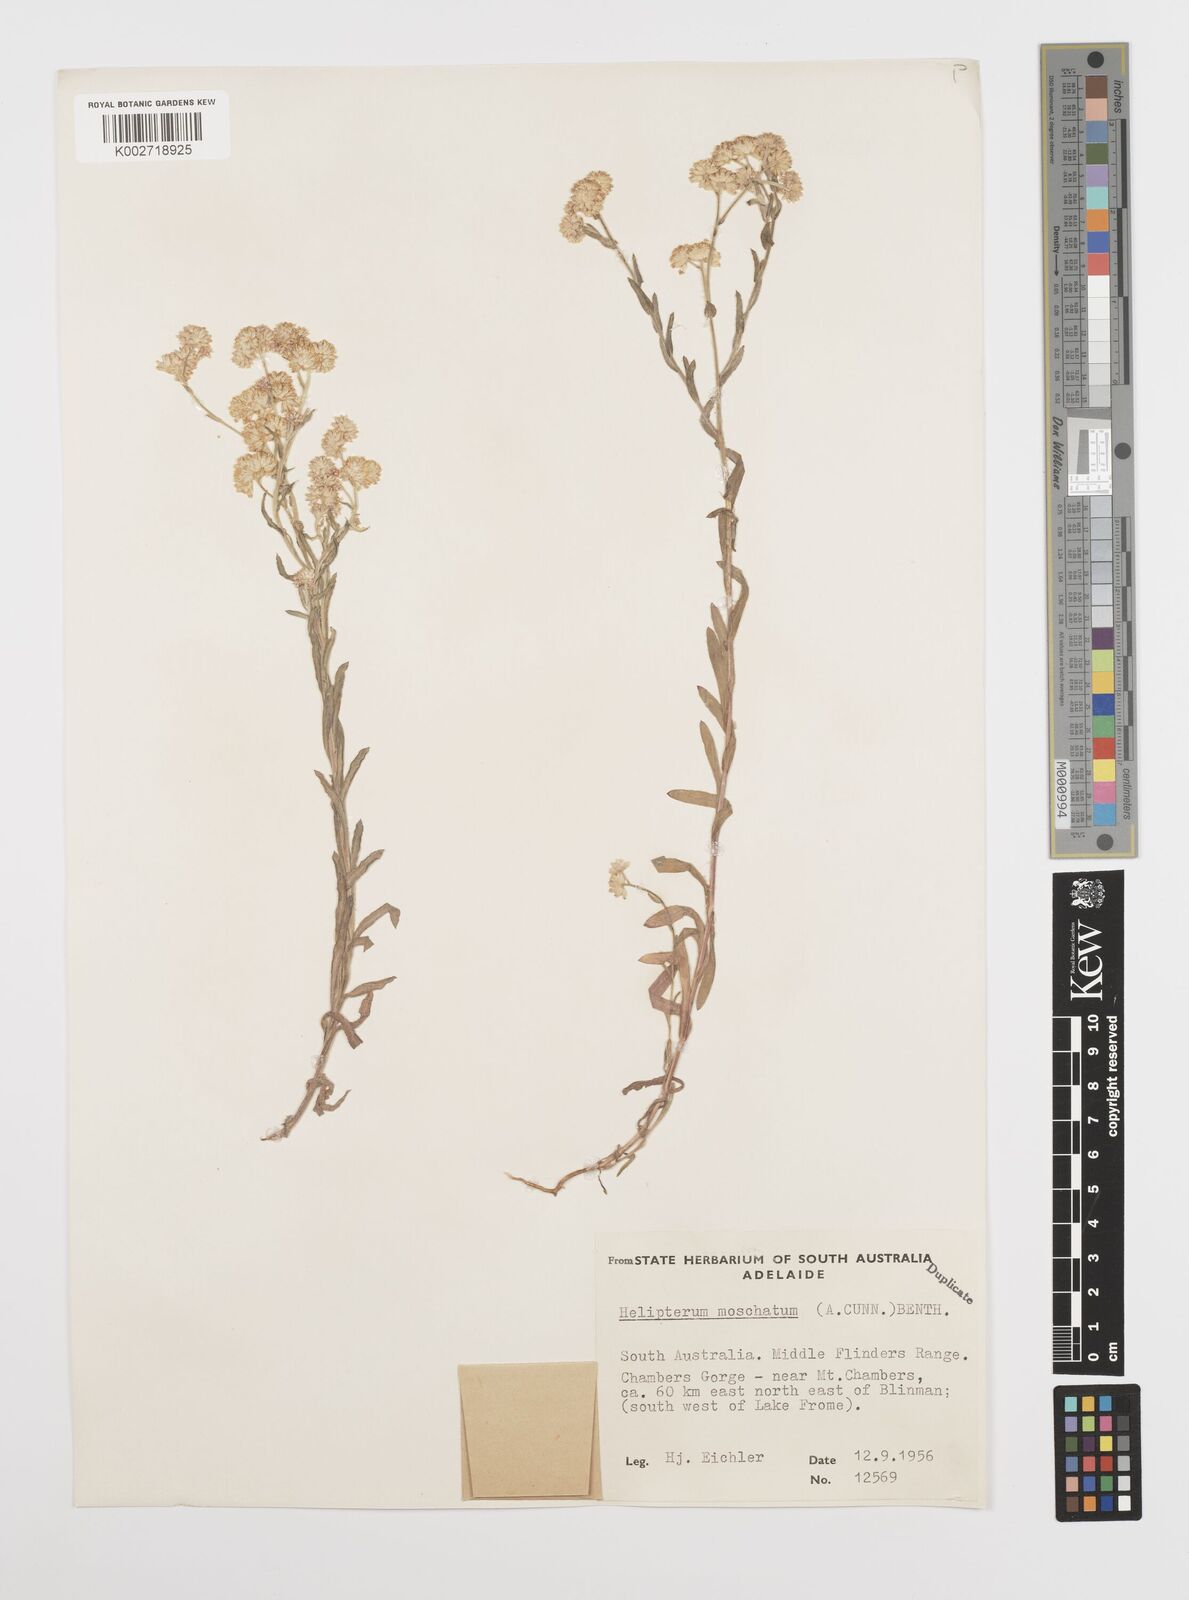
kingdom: Plantae
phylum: Tracheophyta
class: Magnoliopsida
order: Asterales
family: Asteraceae
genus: Rhodanthe
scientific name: Rhodanthe moschata
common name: Musk sunray
